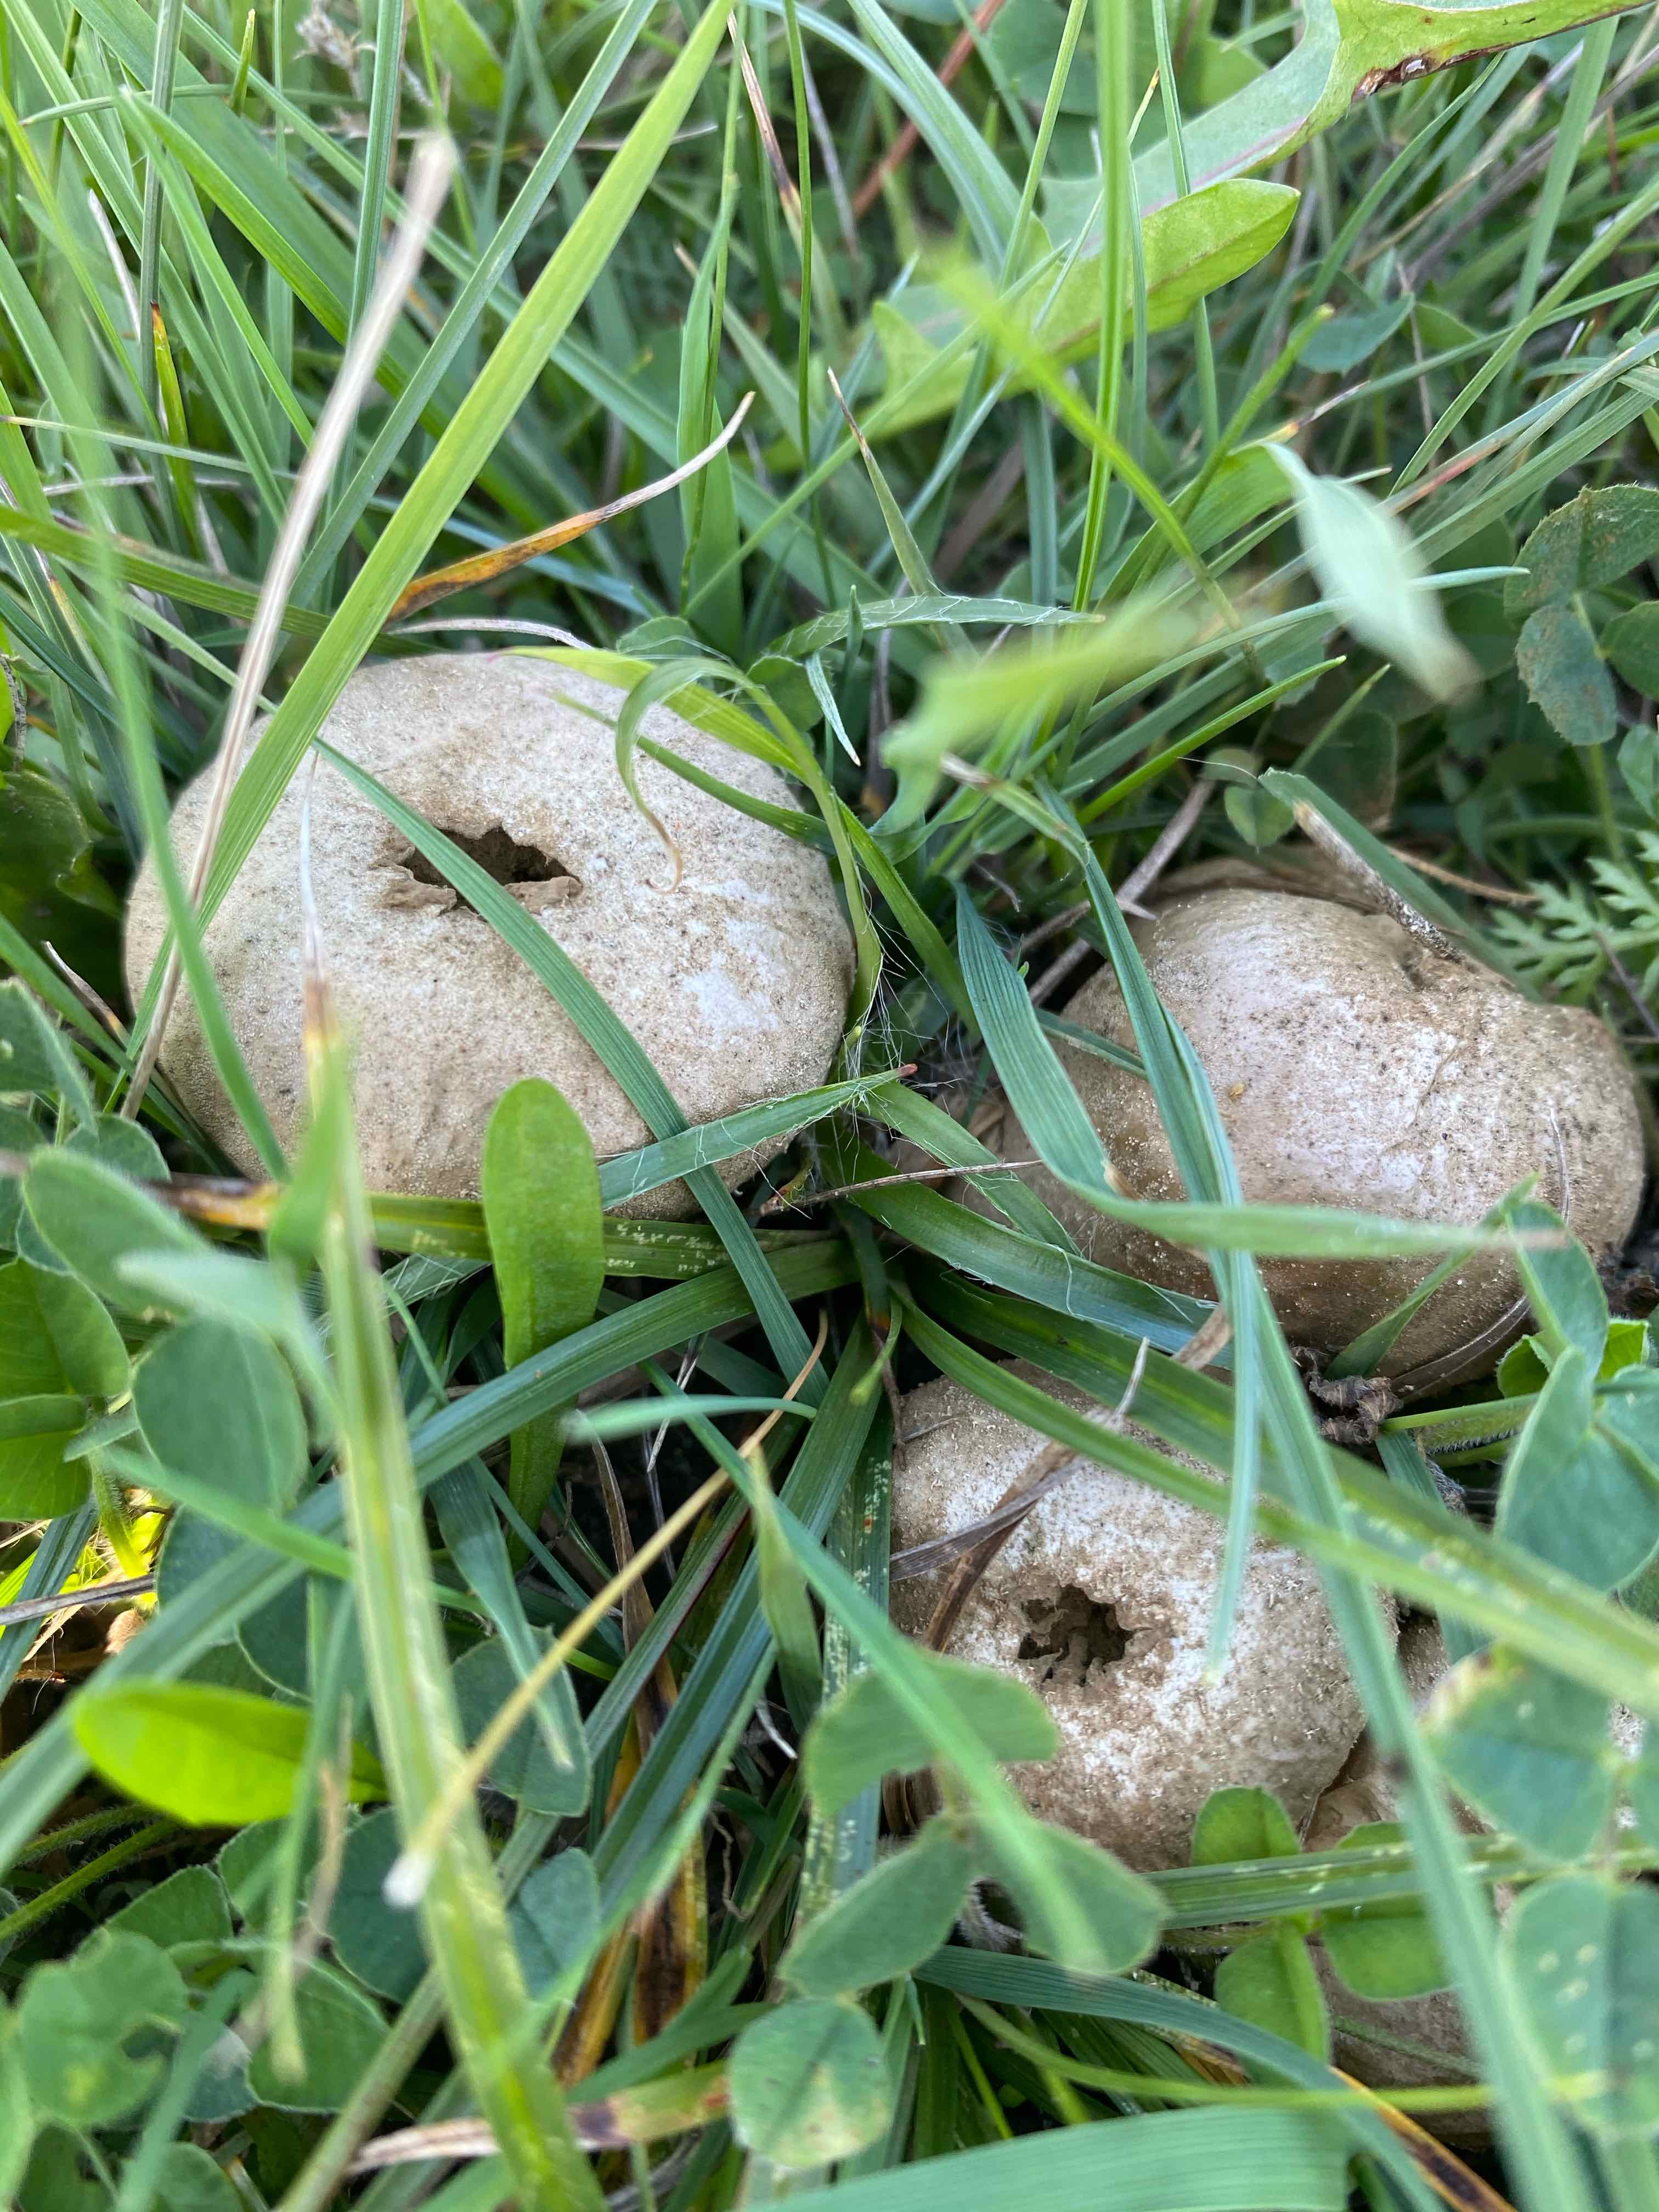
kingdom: Fungi
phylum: Basidiomycota
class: Agaricomycetes
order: Agaricales
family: Lycoperdaceae
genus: Lycoperdon
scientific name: Lycoperdon pratense
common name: flad støvbold
